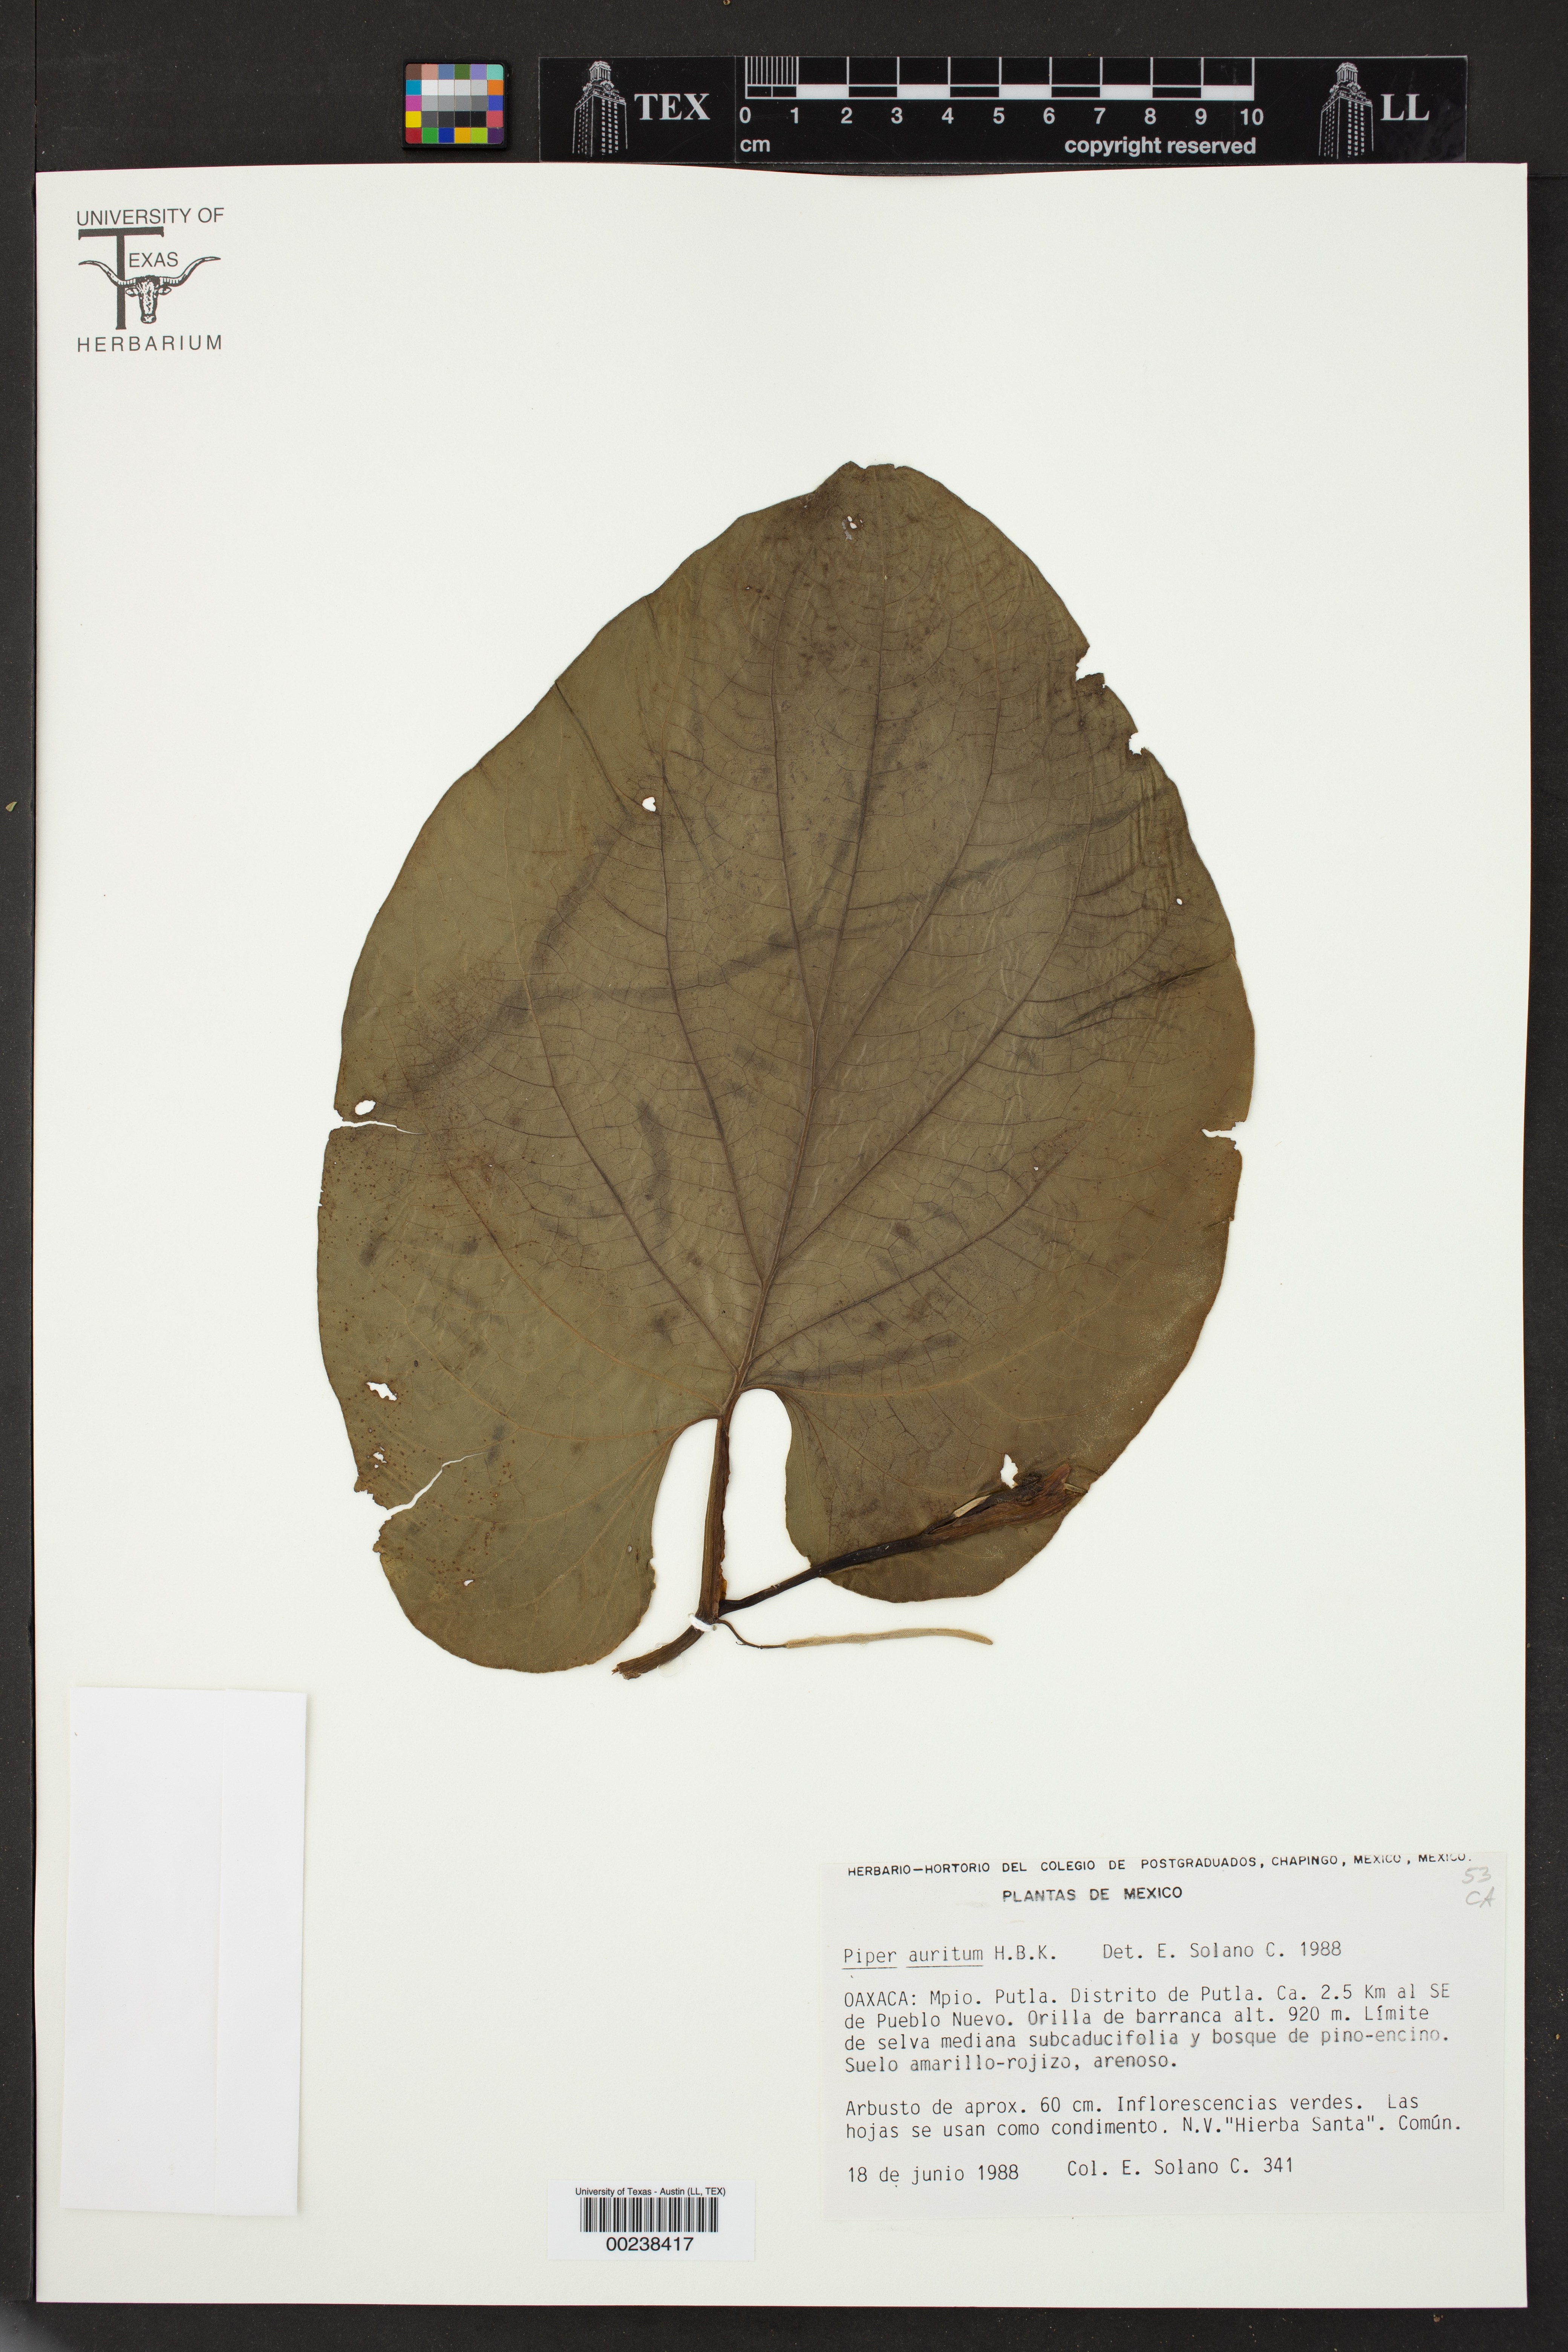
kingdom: Plantae
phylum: Tracheophyta
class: Magnoliopsida
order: Piperales
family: Piperaceae
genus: Piper
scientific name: Piper auritum
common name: Vera cruz pepper
